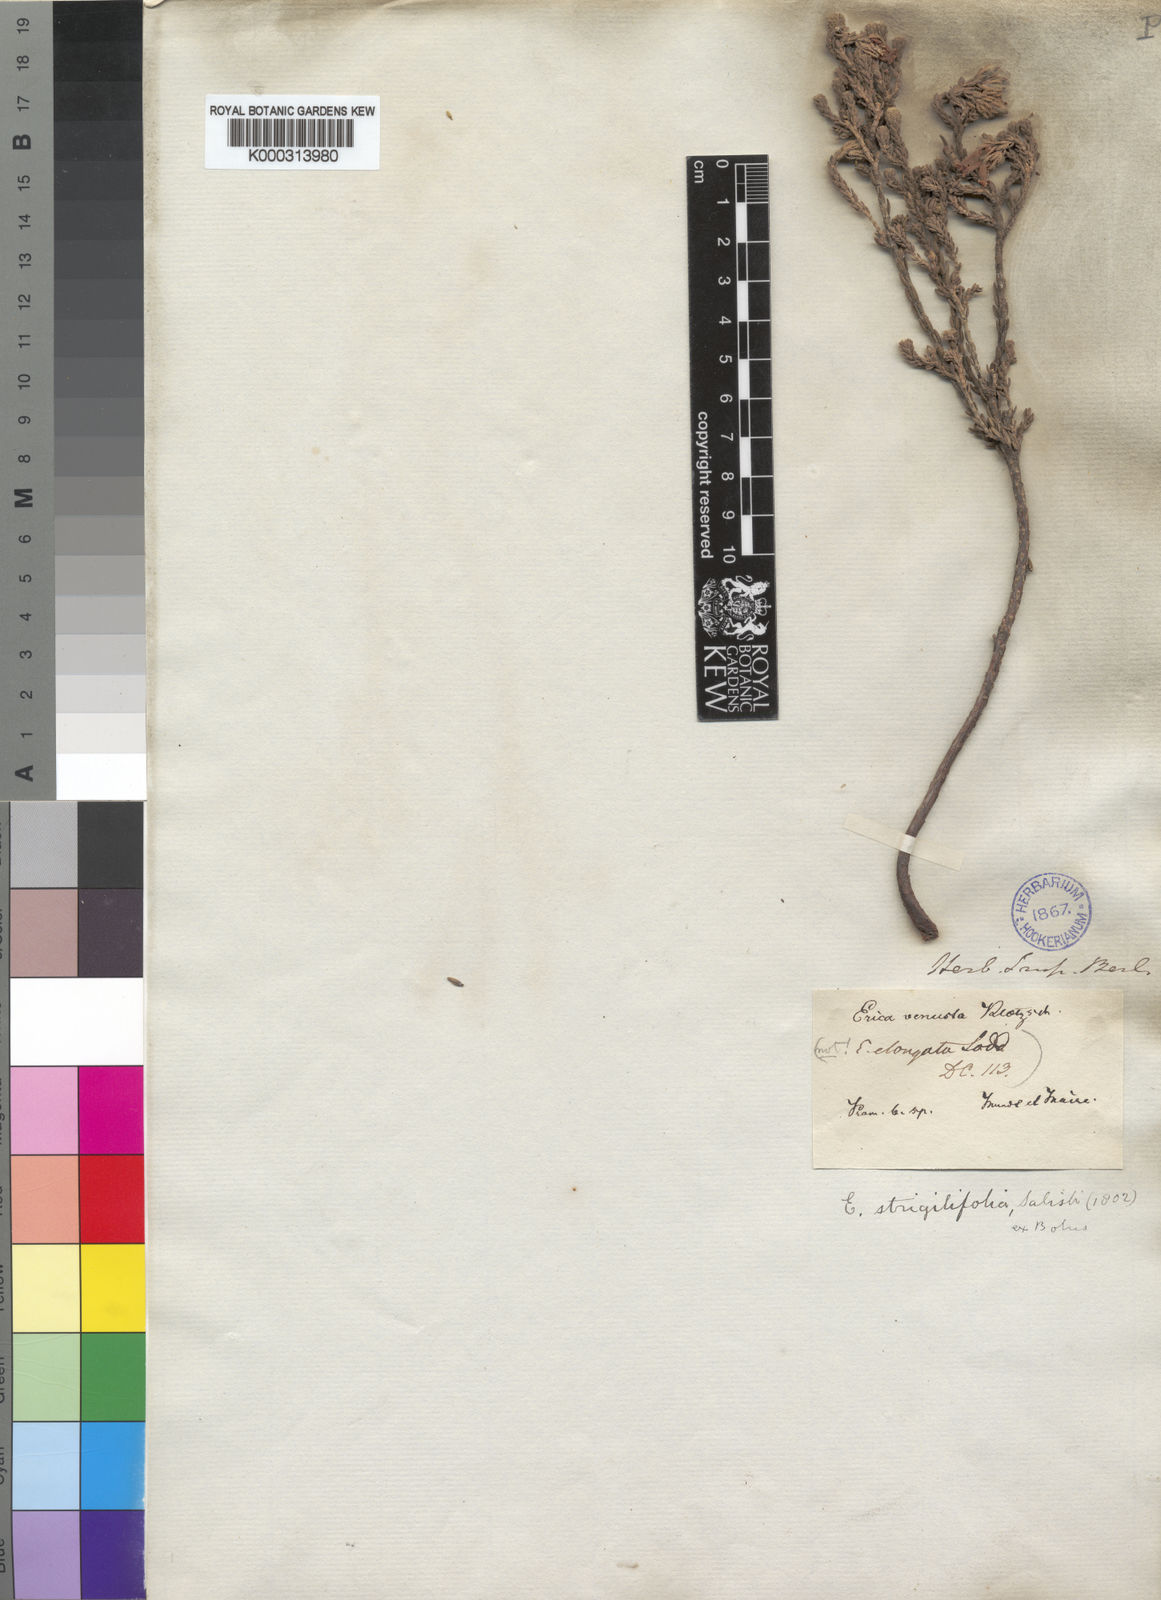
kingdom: Plantae
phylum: Tracheophyta
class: Magnoliopsida
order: Ericales
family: Ericaceae
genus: Erica
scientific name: Erica strigilifolia
